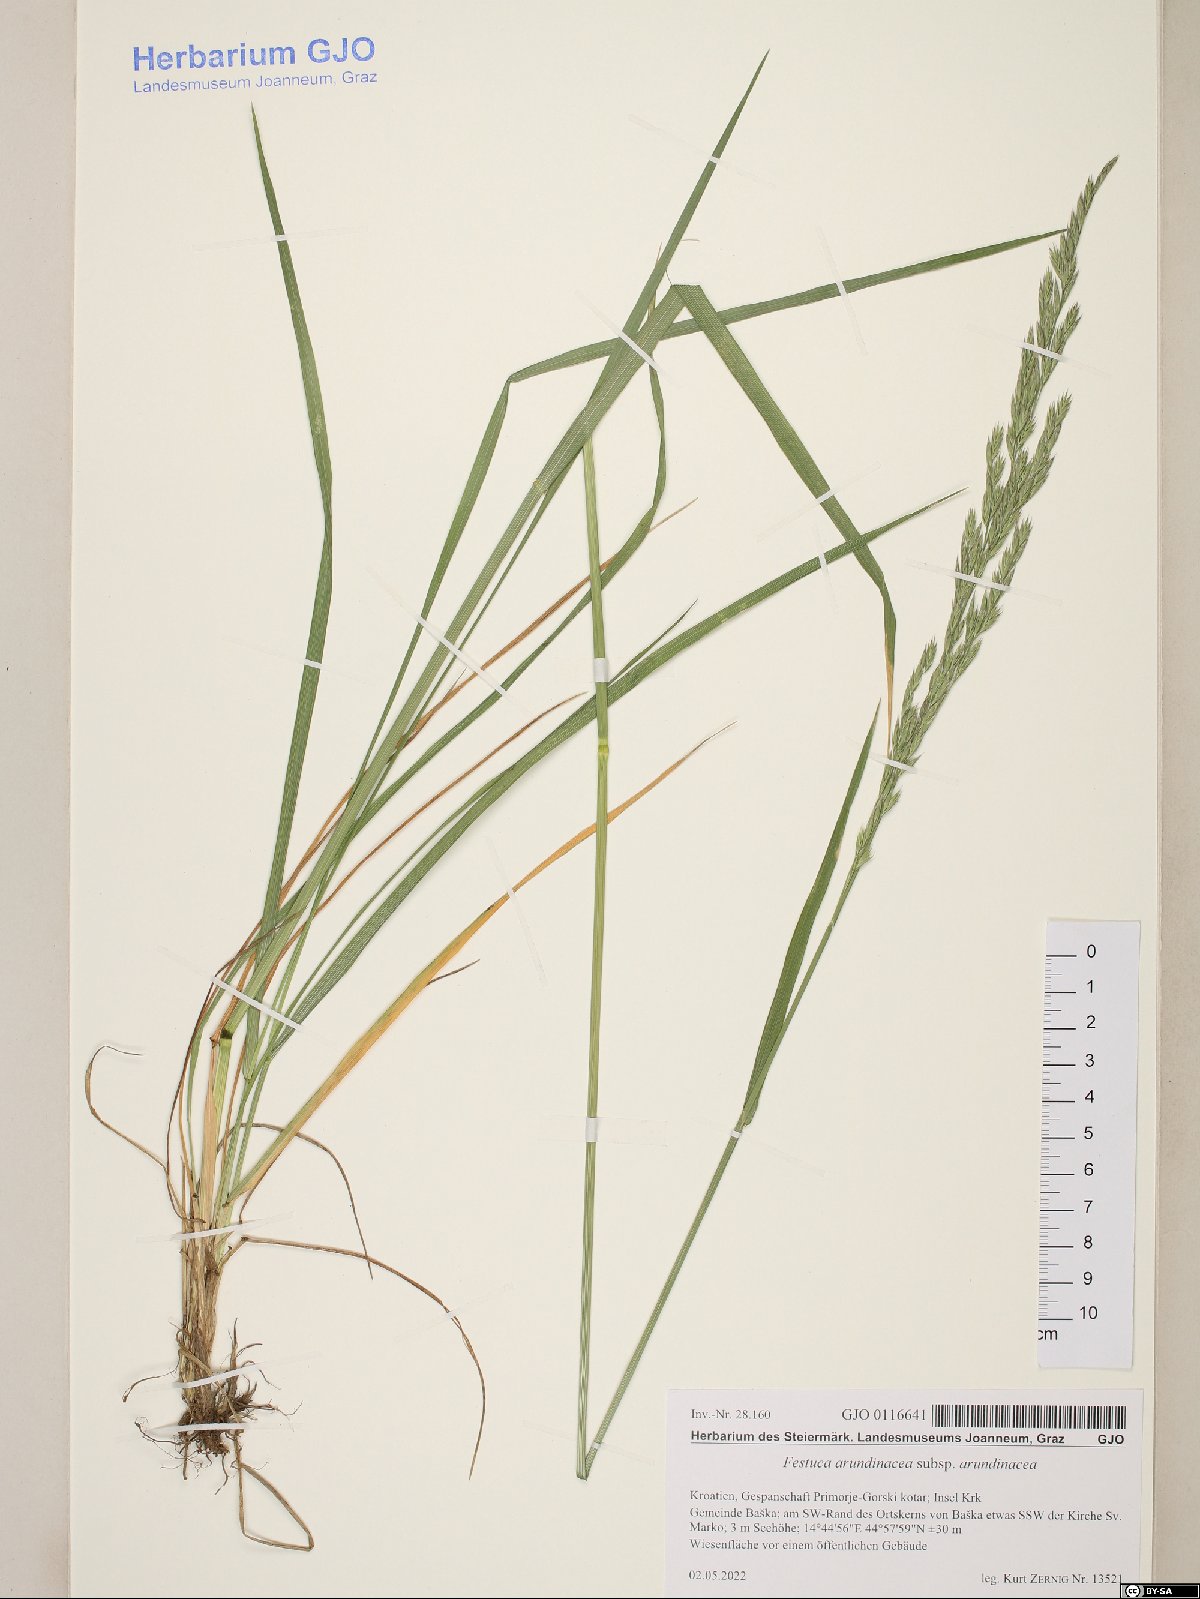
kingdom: Plantae
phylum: Tracheophyta
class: Liliopsida
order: Poales
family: Poaceae
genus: Lolium
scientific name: Lolium arundinaceum
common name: Reed fescue
